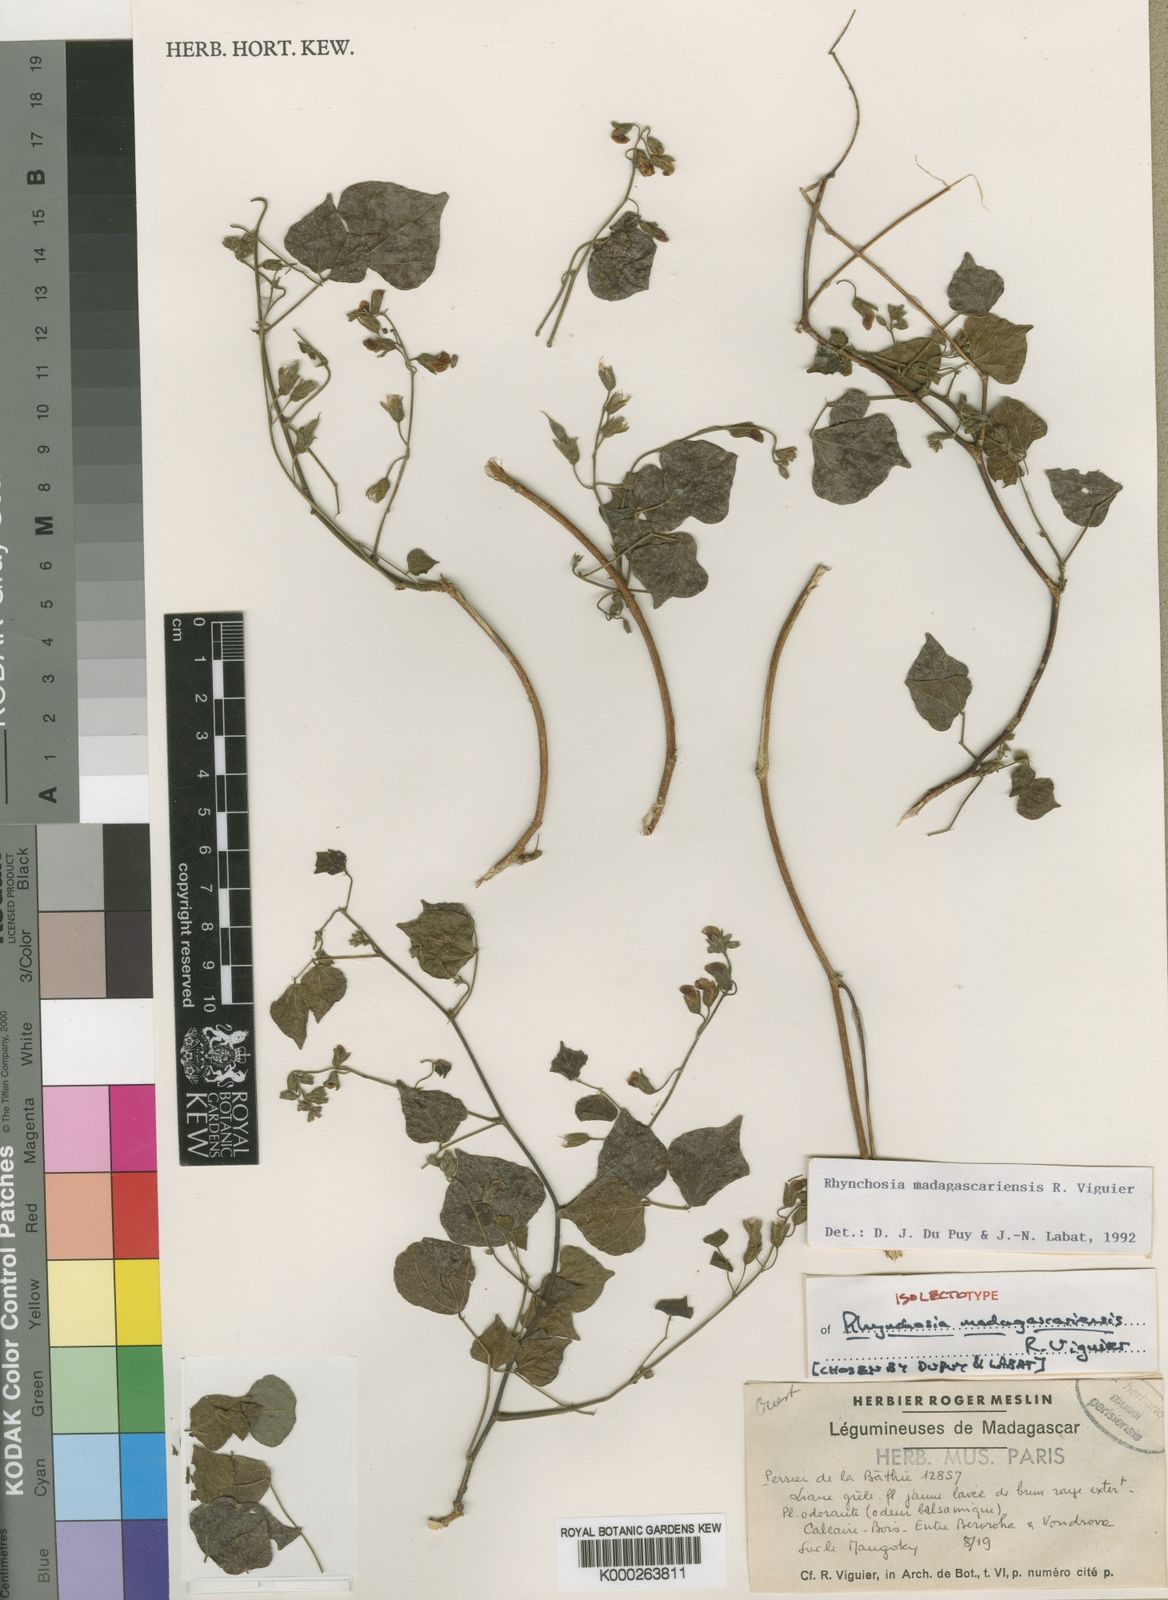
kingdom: Plantae
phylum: Tracheophyta
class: Magnoliopsida
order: Fabales
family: Fabaceae
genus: Rhynchosia
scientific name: Rhynchosia madagascariensis
